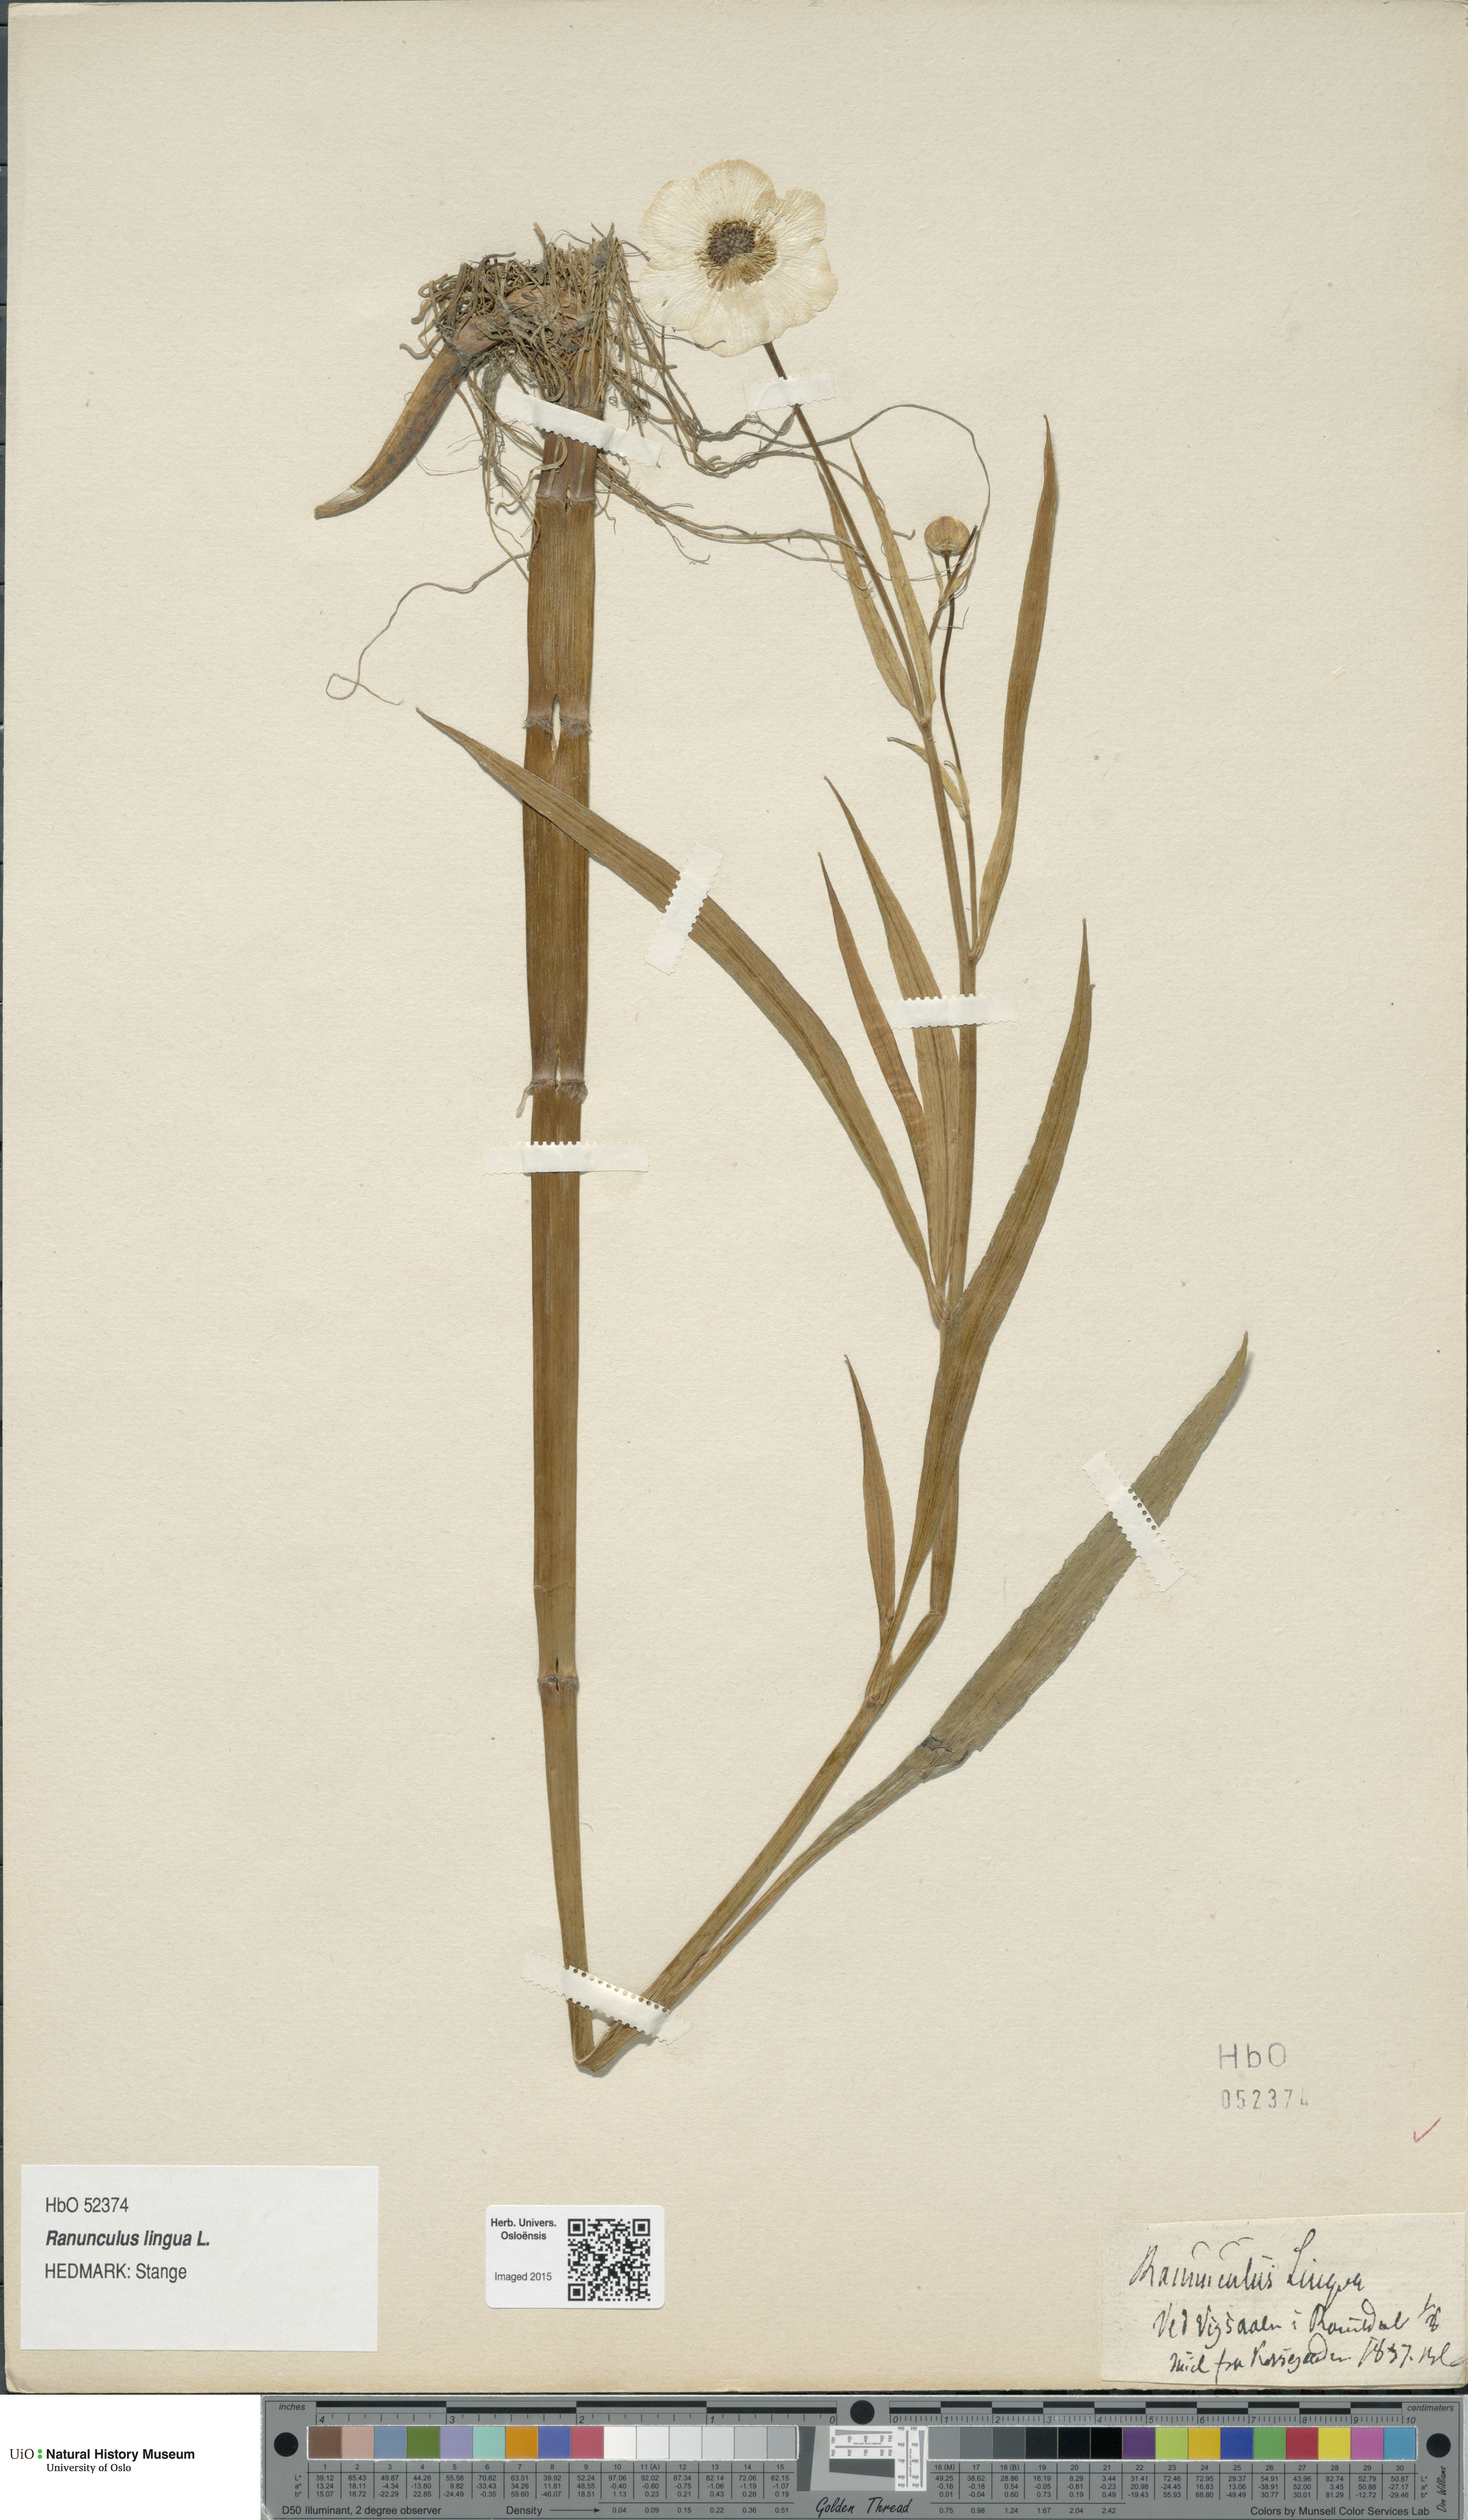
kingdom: Plantae
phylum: Tracheophyta
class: Magnoliopsida
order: Ranunculales
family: Ranunculaceae
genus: Ranunculus
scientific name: Ranunculus lingua
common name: Greater spearwort
